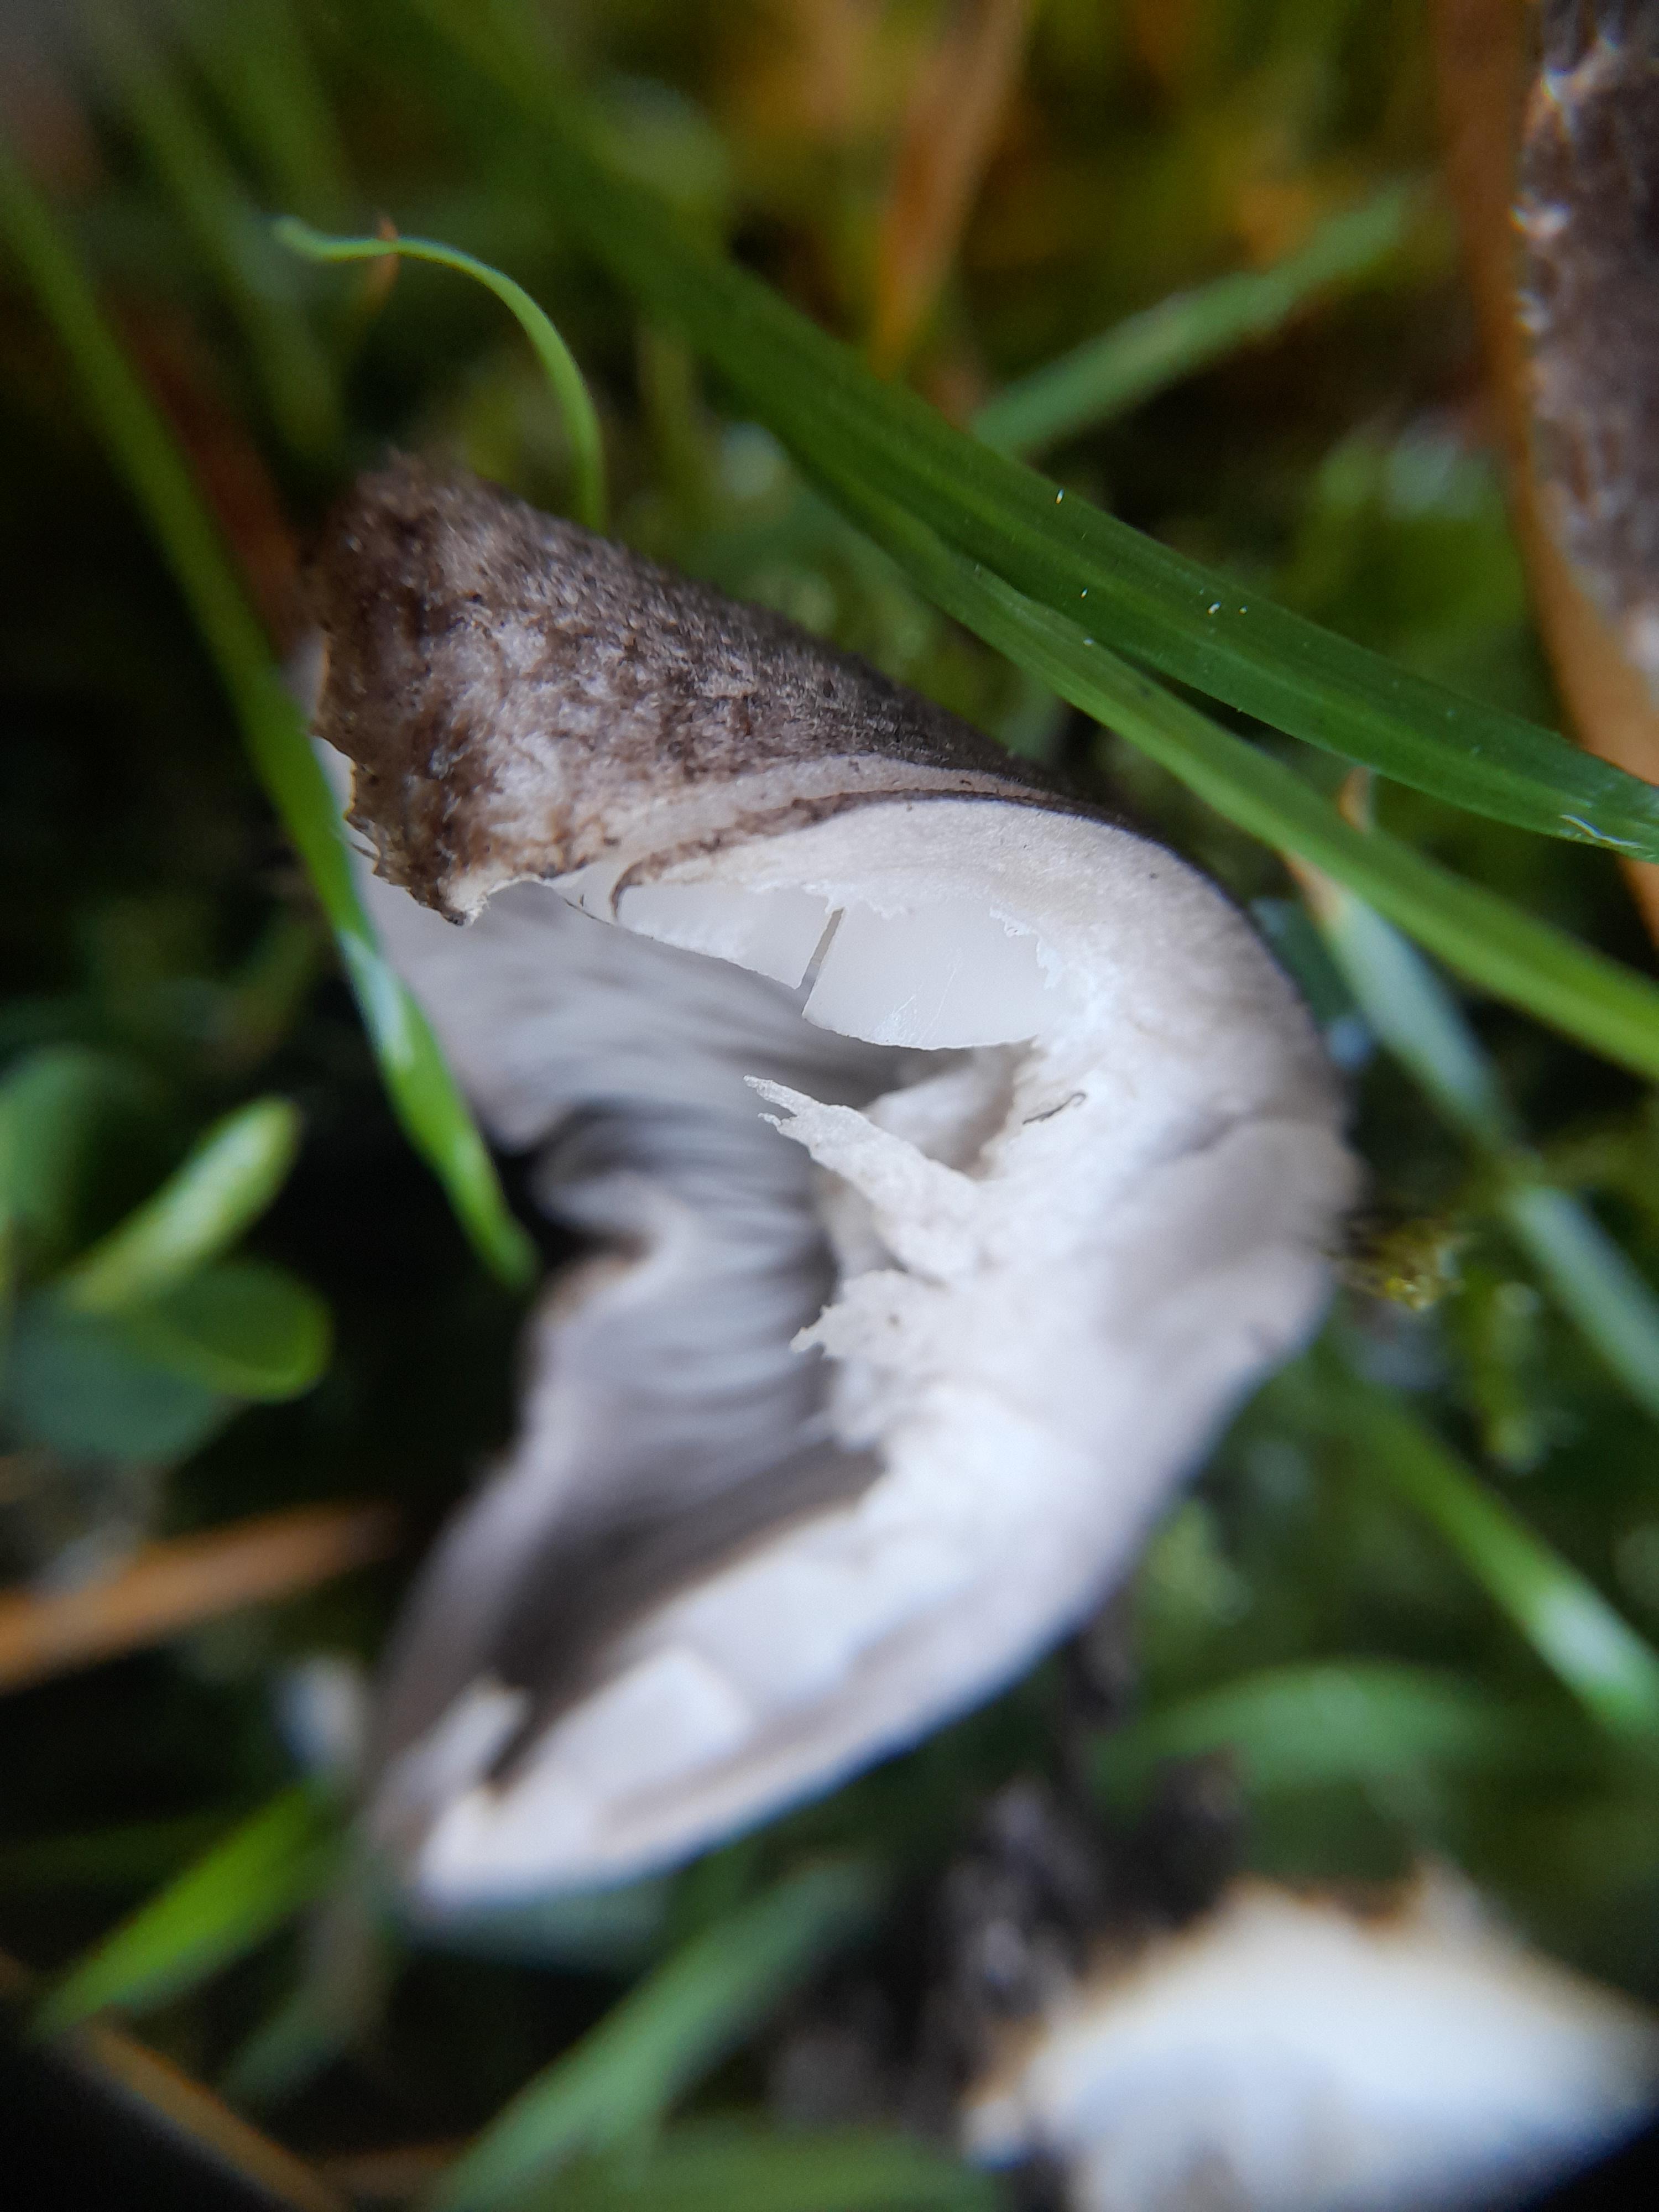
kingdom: Fungi
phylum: Basidiomycota
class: Agaricomycetes
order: Agaricales
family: Tricholomataceae
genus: Tricholoma
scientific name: Tricholoma
